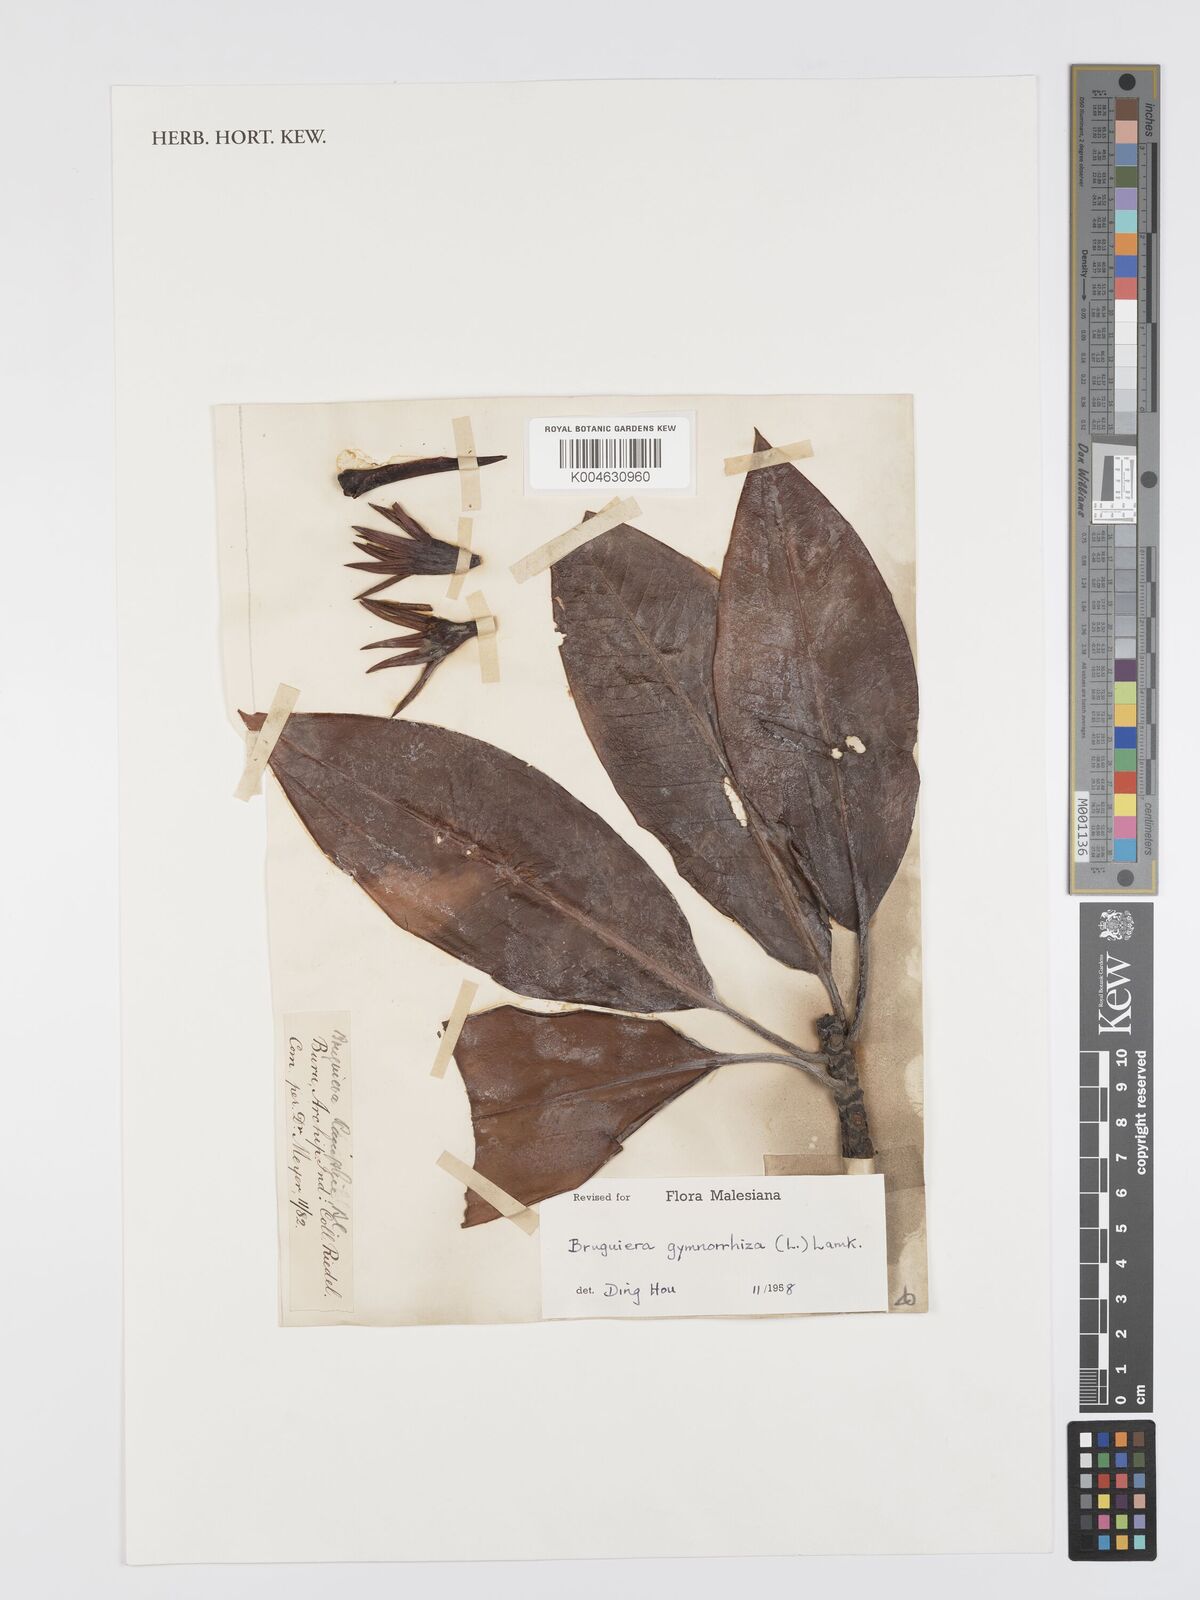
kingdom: Plantae
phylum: Tracheophyta
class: Magnoliopsida
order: Malpighiales
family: Rhizophoraceae
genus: Bruguiera
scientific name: Bruguiera gymnorhiza
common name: Oriental mangrove
